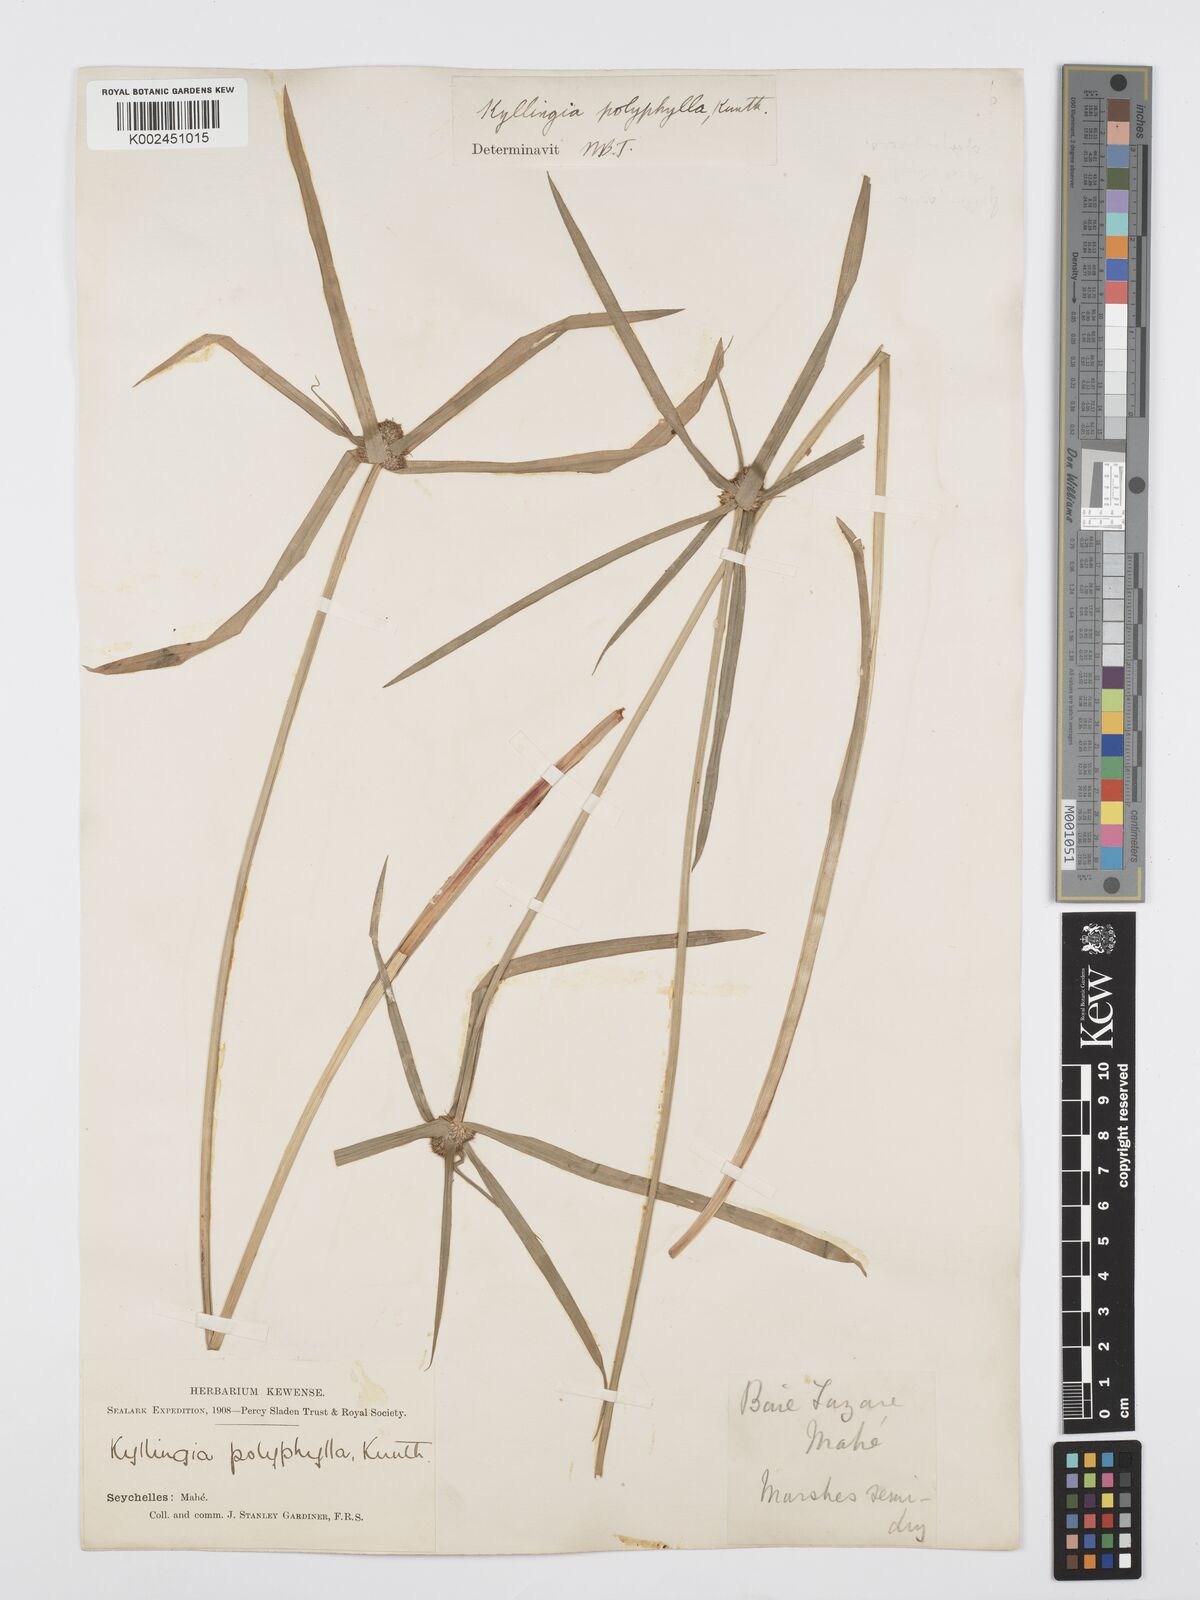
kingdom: Plantae
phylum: Tracheophyta
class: Liliopsida
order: Poales
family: Cyperaceae
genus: Cyperus
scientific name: Cyperus bulbosus
